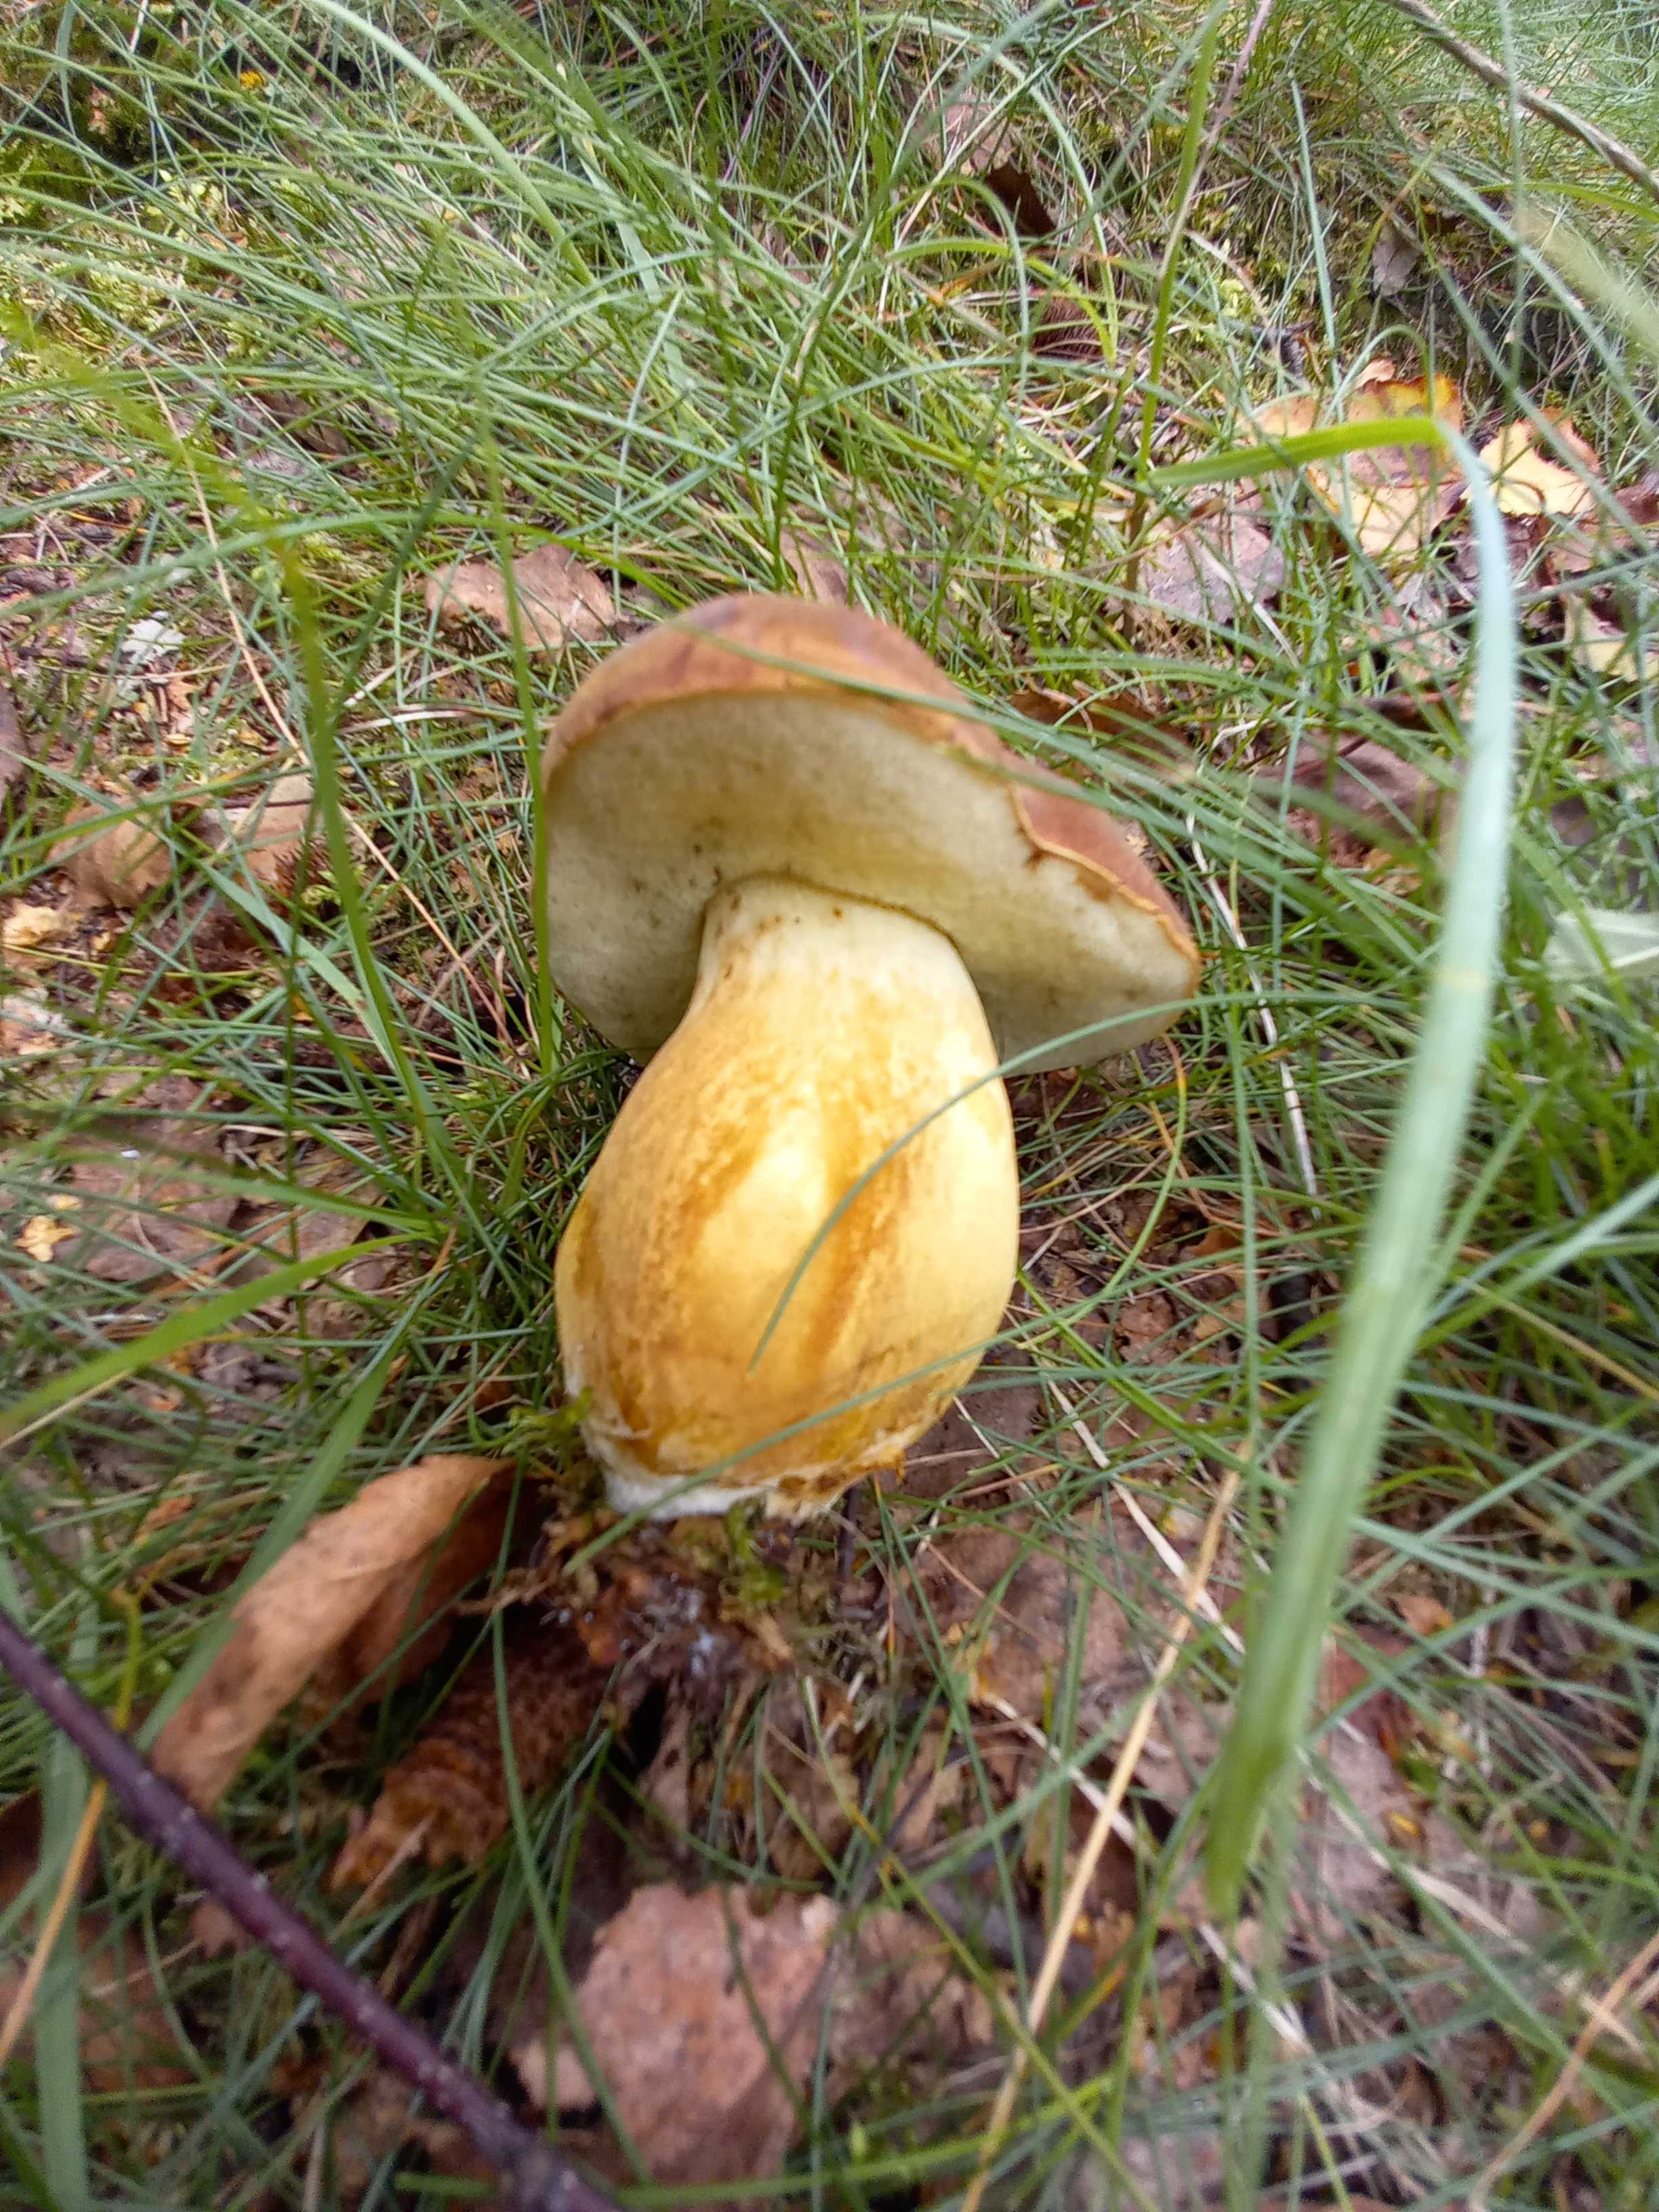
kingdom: Fungi
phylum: Basidiomycota
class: Agaricomycetes
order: Boletales
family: Boletaceae
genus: Imleria
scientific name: Imleria badia
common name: brunstokket rørhat
